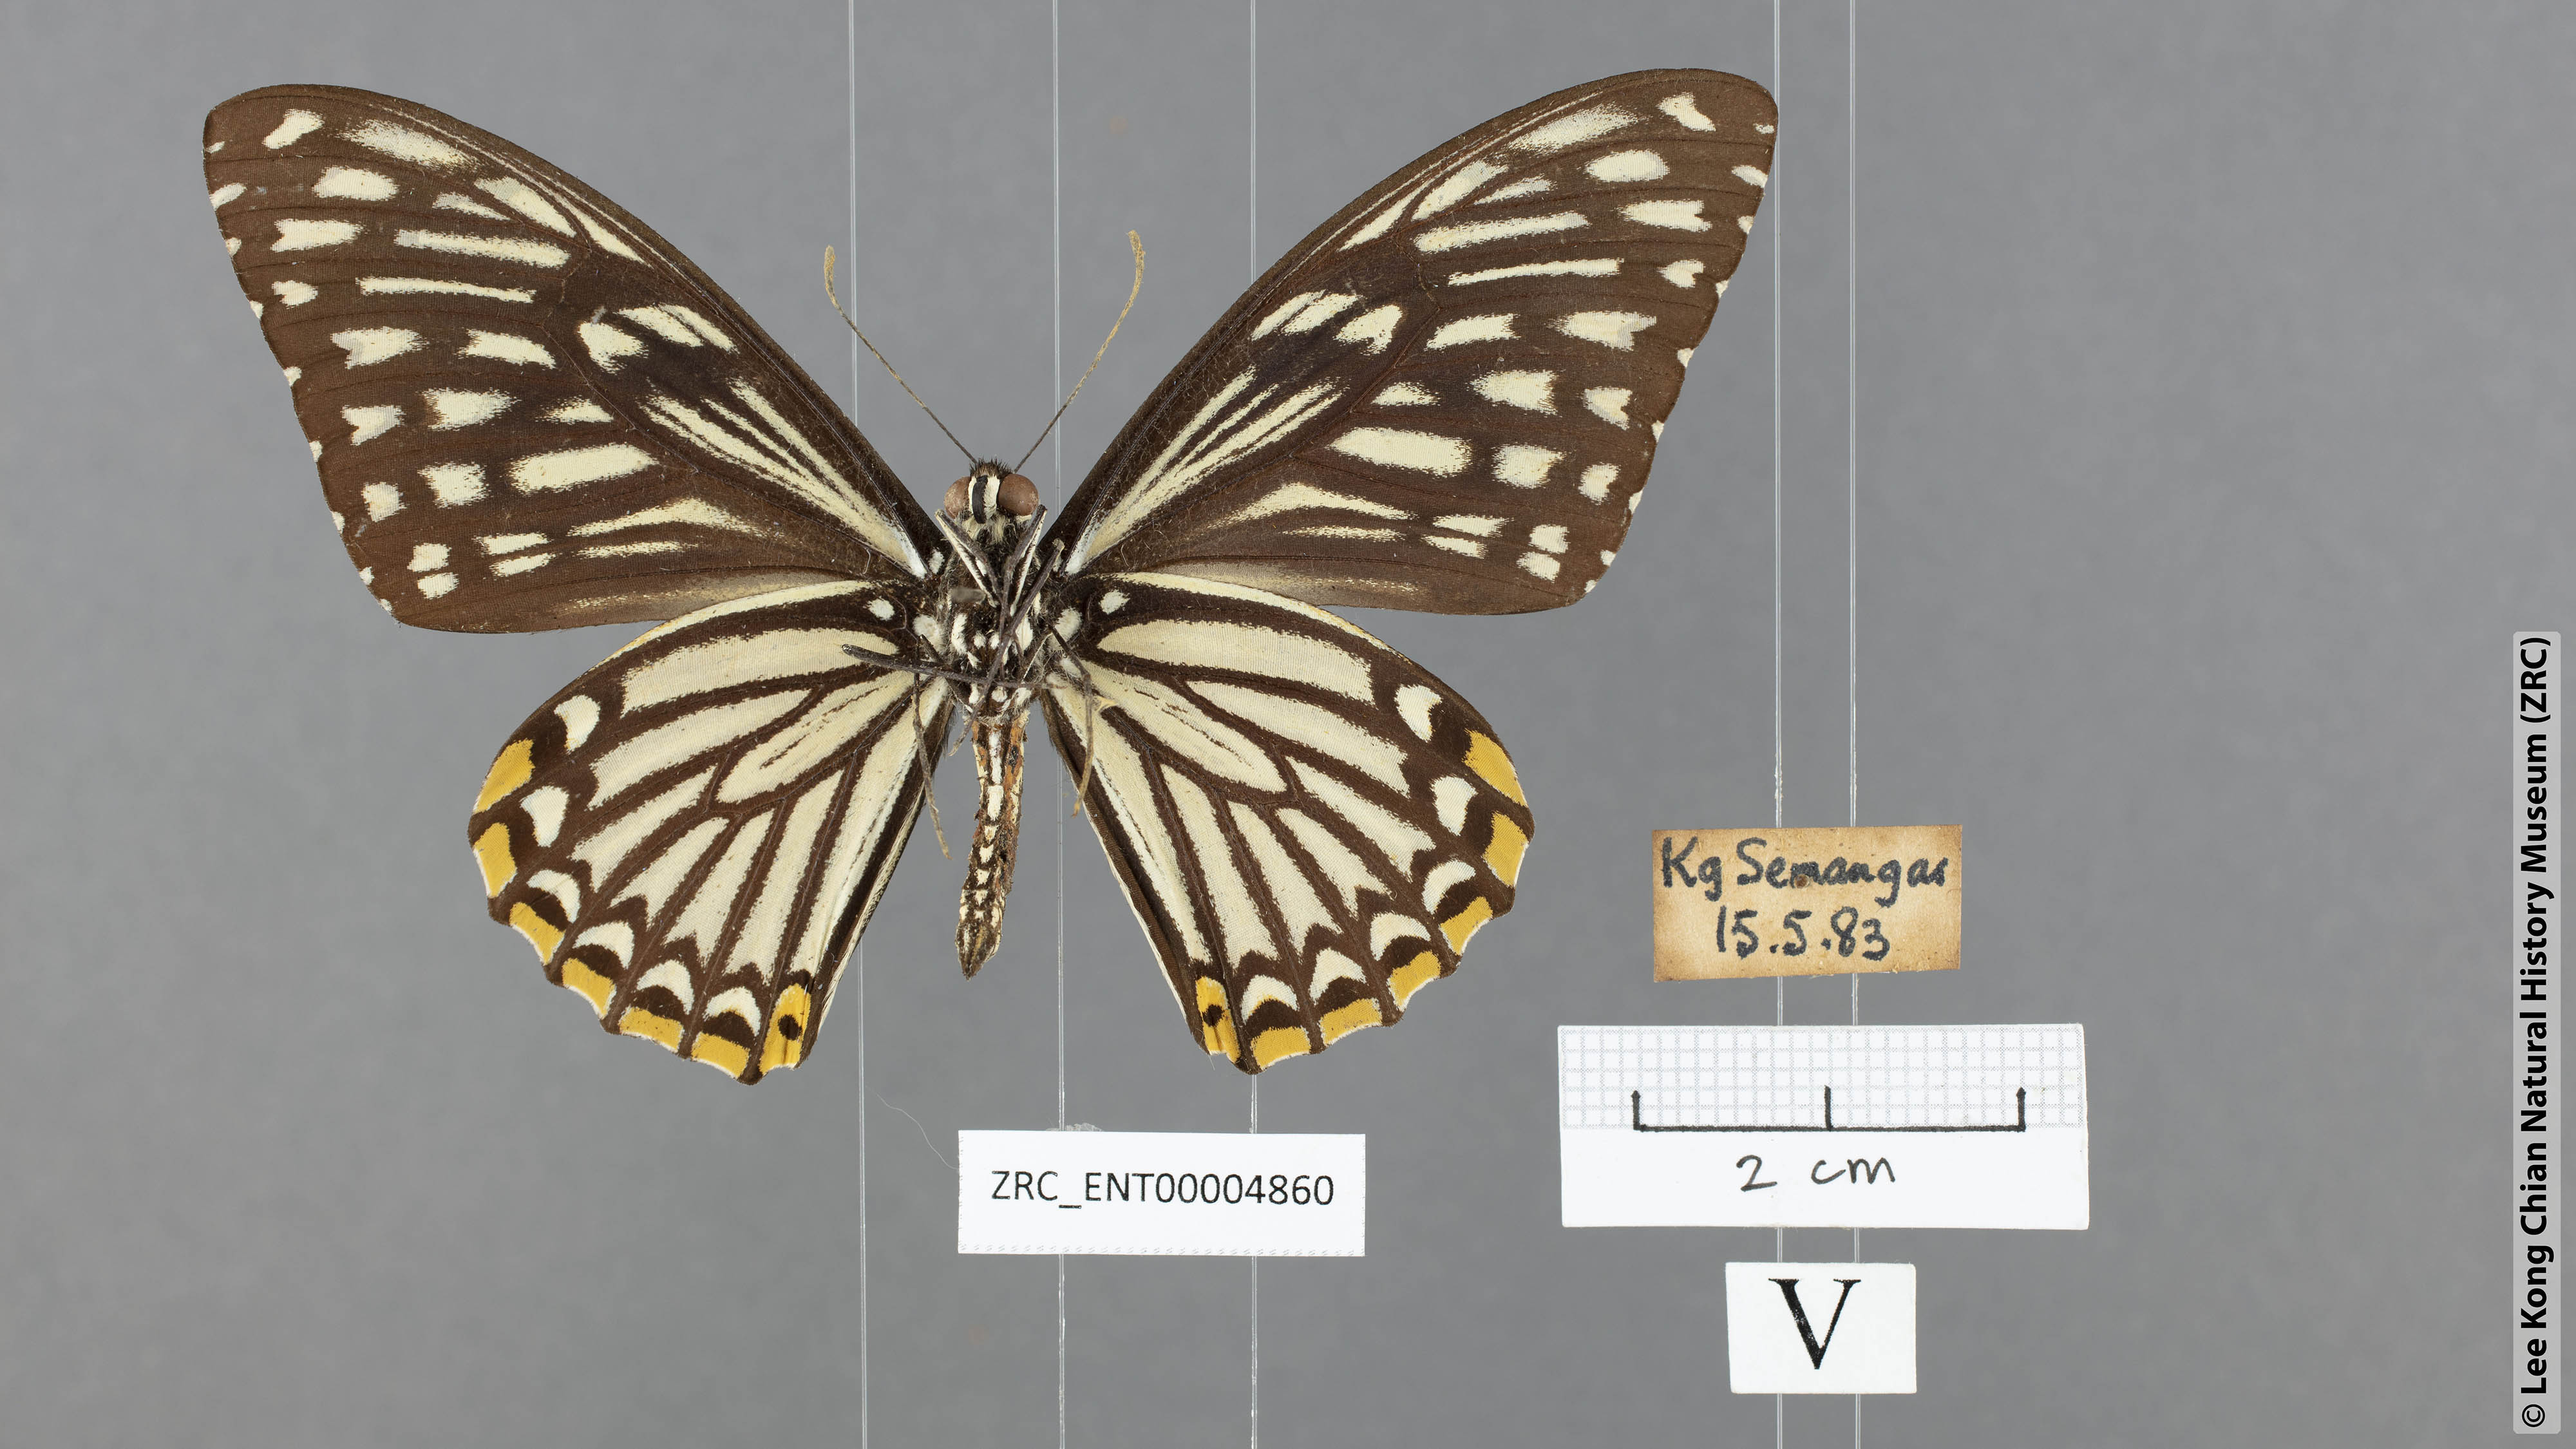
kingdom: Animalia
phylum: Arthropoda
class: Insecta
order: Lepidoptera
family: Papilionidae
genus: Chilasa
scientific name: Chilasa clytia
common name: Common mime
